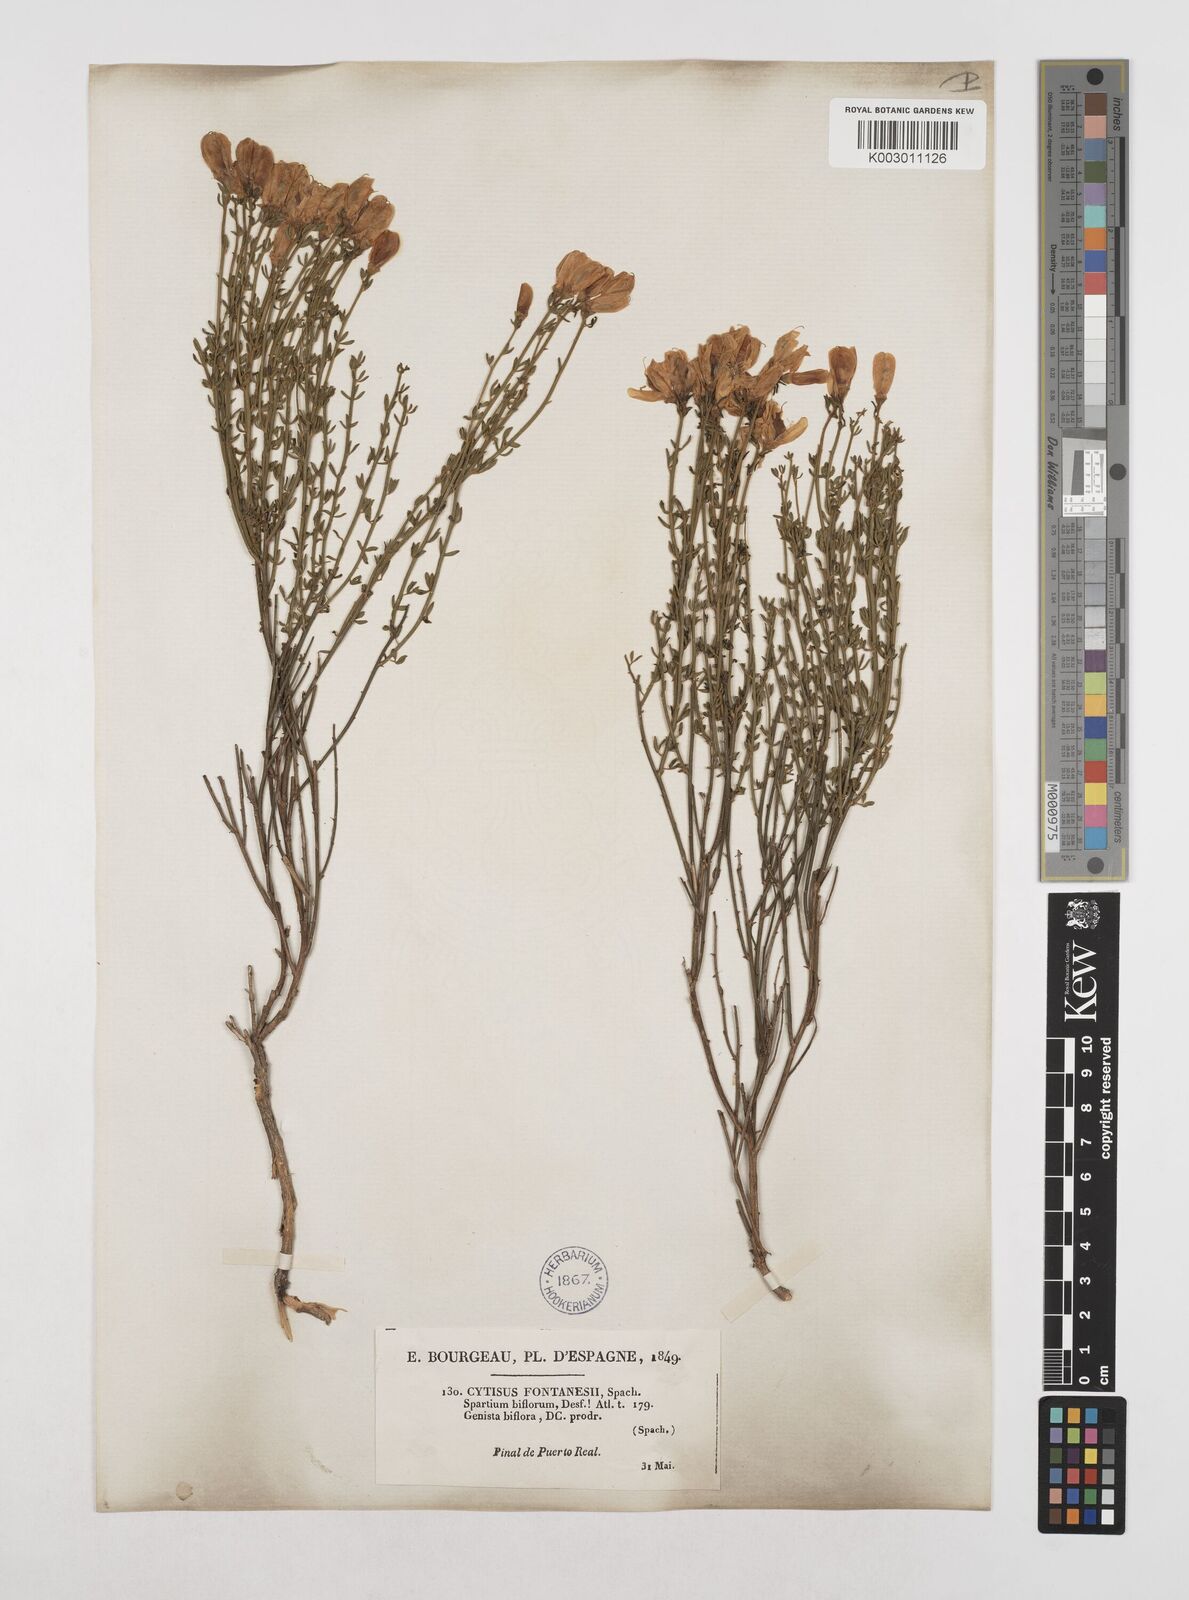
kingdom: Plantae
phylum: Tracheophyta
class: Magnoliopsida
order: Fabales
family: Fabaceae
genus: Cytisus
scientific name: Cytisus fontanesii
